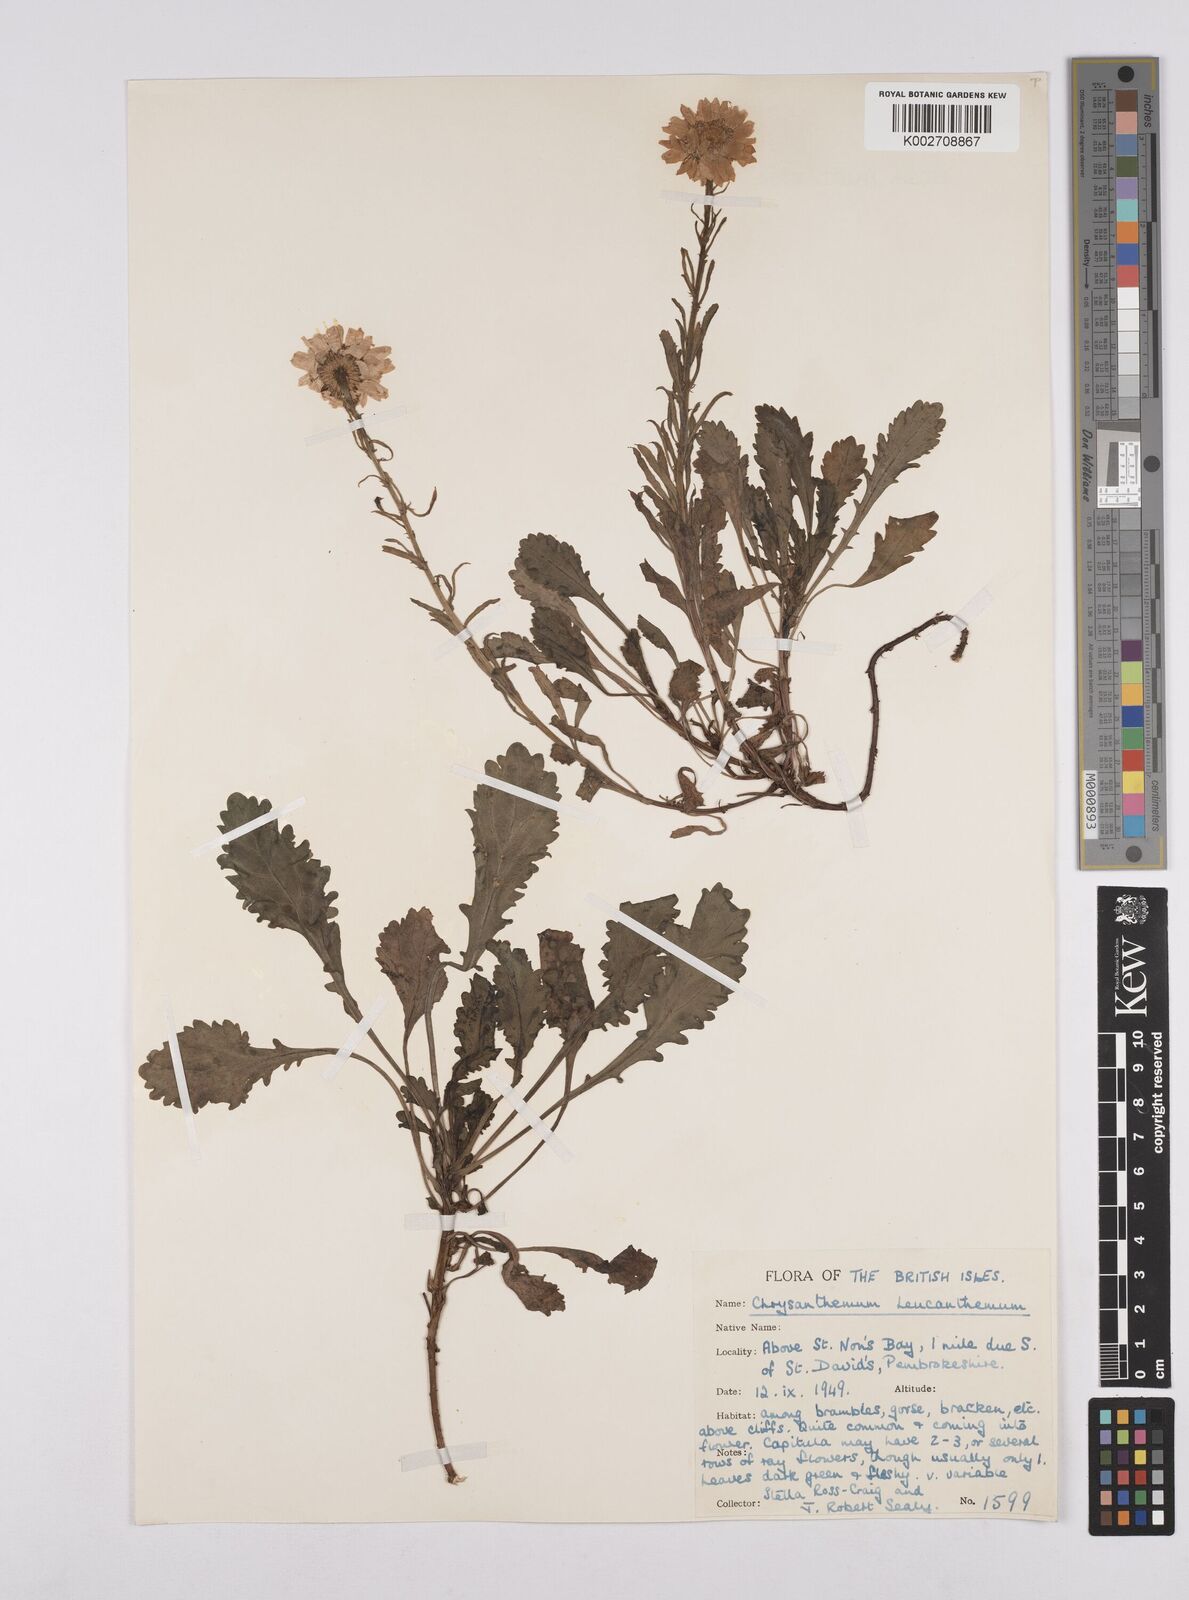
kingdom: Plantae
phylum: Tracheophyta
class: Magnoliopsida
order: Asterales
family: Asteraceae
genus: Leucanthemum
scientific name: Leucanthemum
